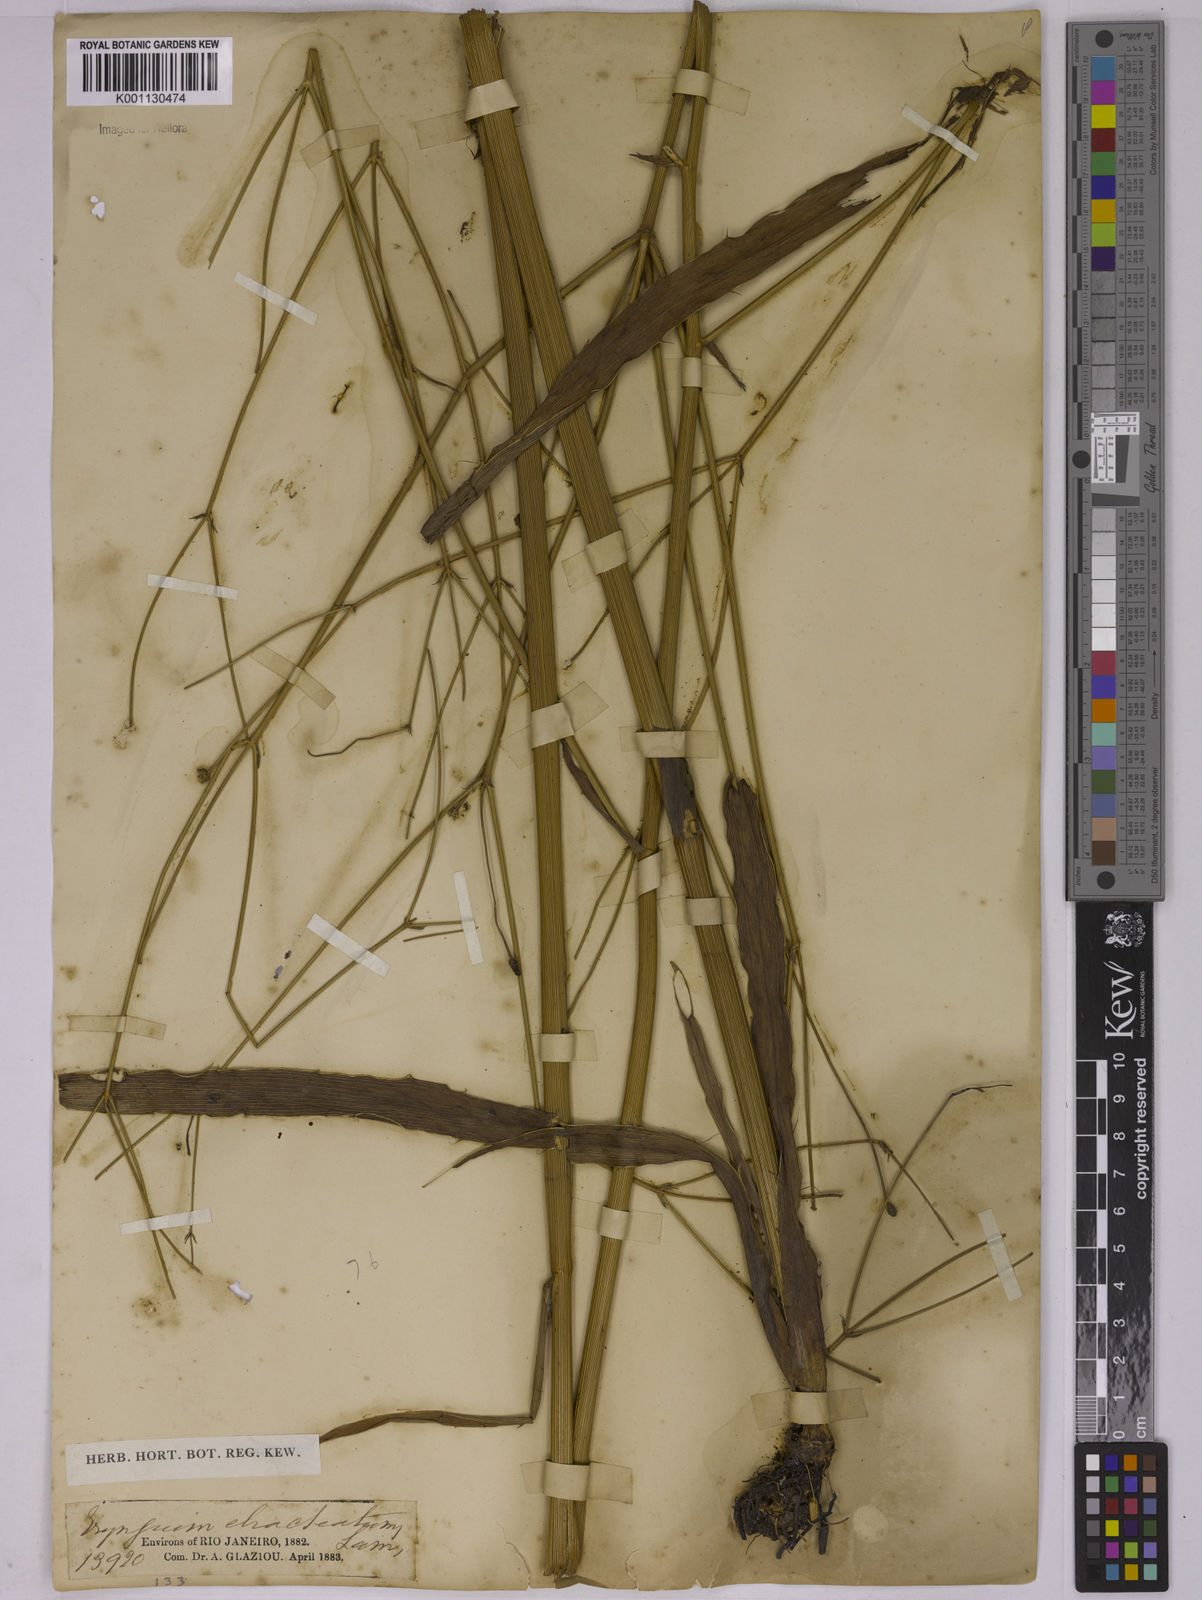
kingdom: Plantae
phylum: Tracheophyta
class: Magnoliopsida
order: Apiales
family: Apiaceae
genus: Eryngium
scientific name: Eryngium ebracteatum
